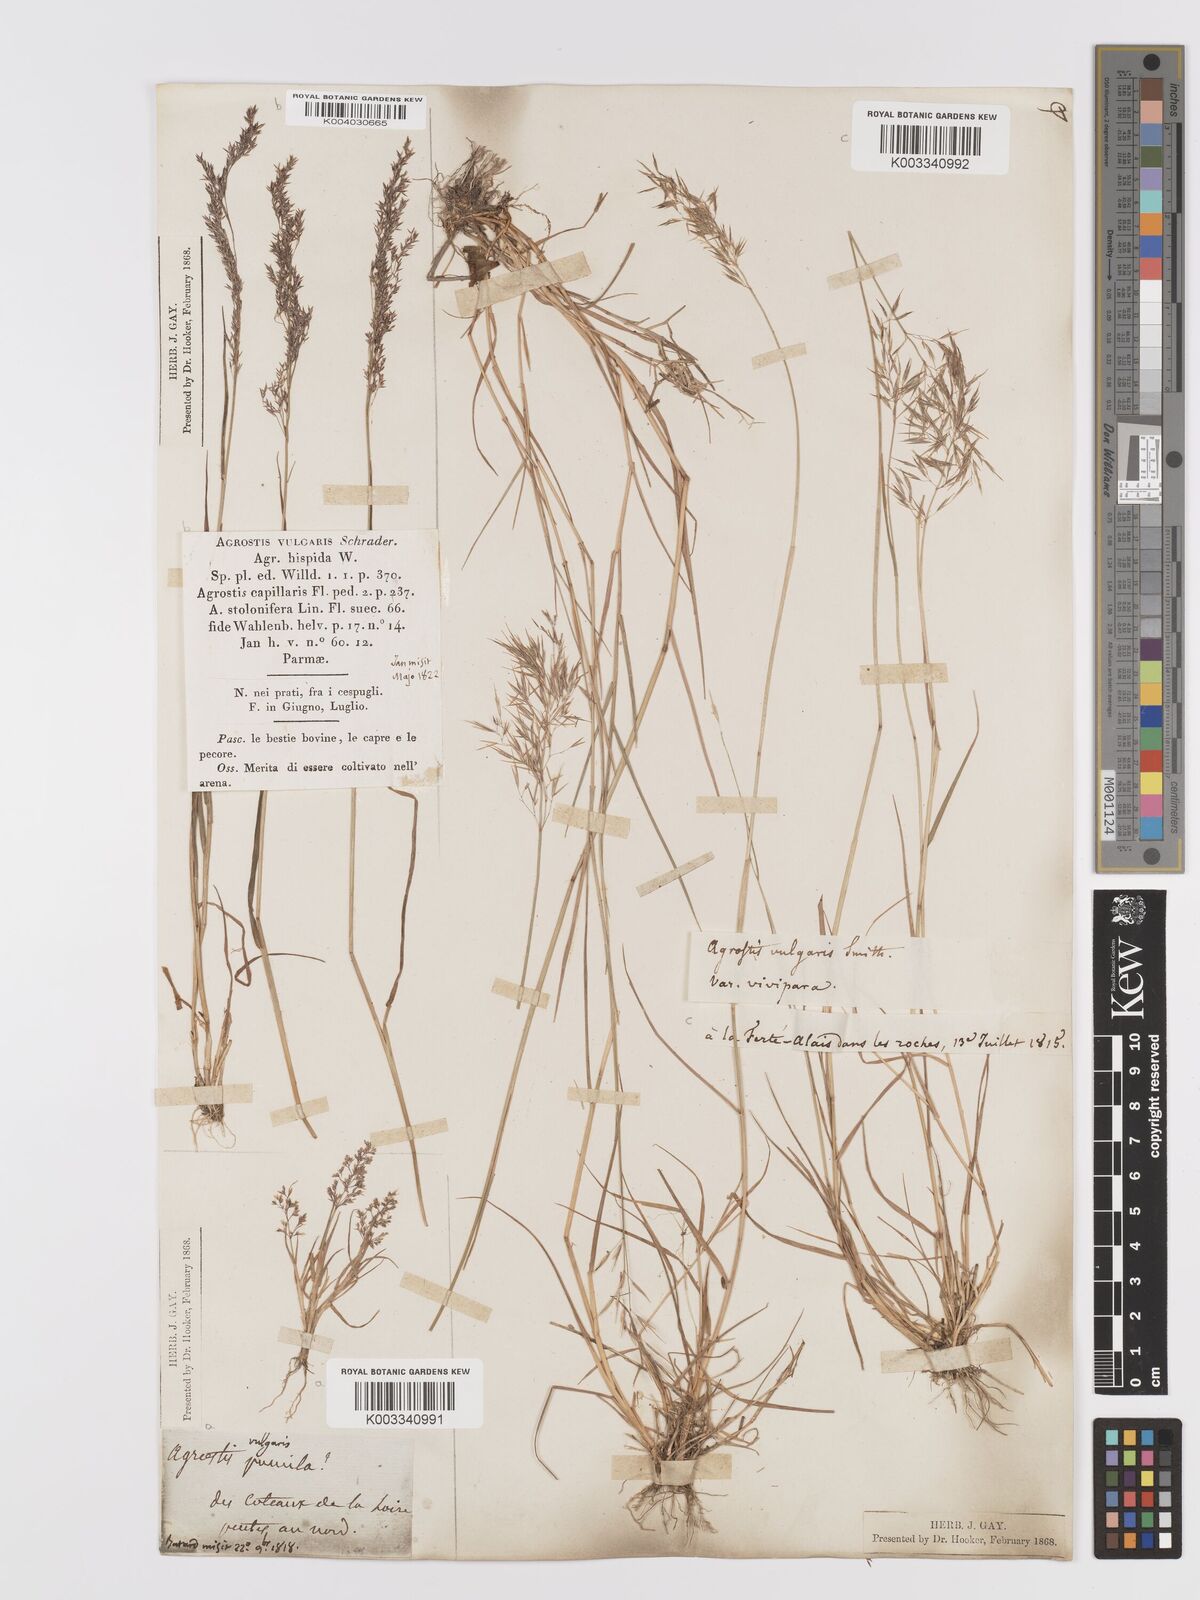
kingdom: Plantae
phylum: Tracheophyta
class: Liliopsida
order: Poales
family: Poaceae
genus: Agrostis
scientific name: Agrostis capillaris
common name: Colonial bentgrass
